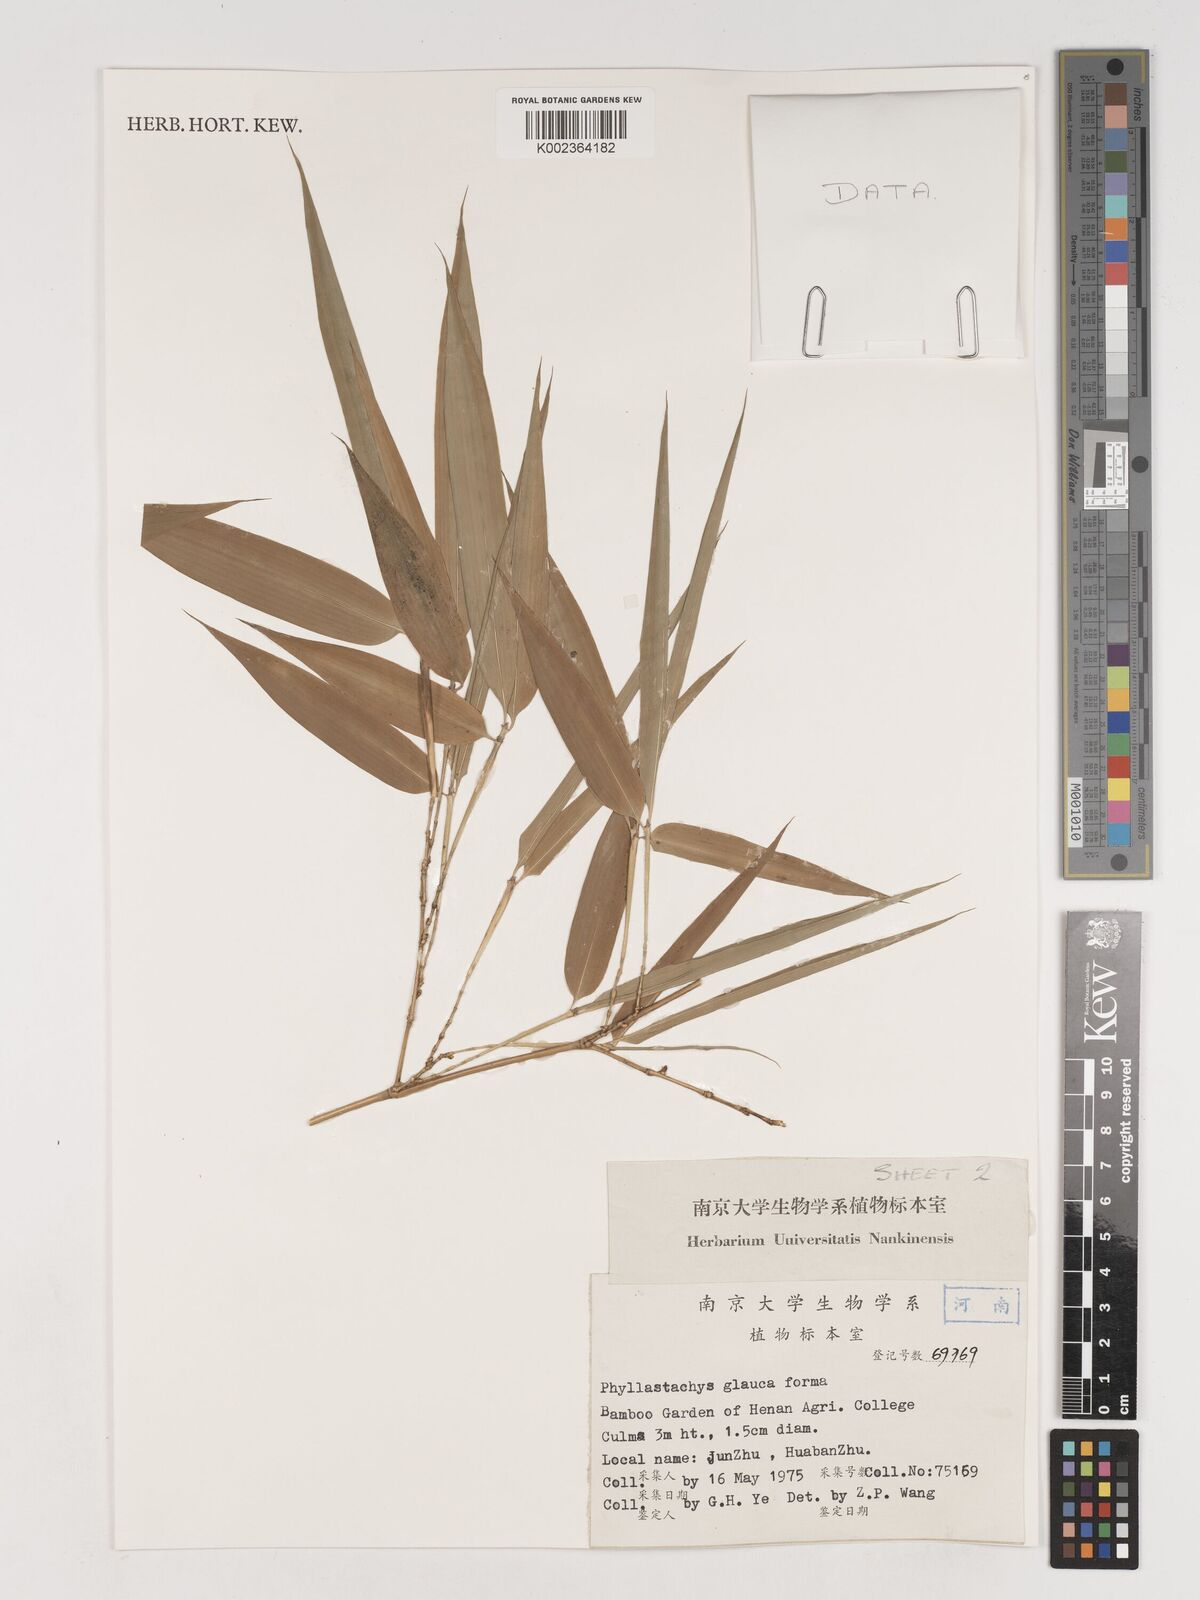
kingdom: Plantae
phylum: Tracheophyta
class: Liliopsida
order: Poales
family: Poaceae
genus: Phyllostachys
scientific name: Phyllostachys glauca
